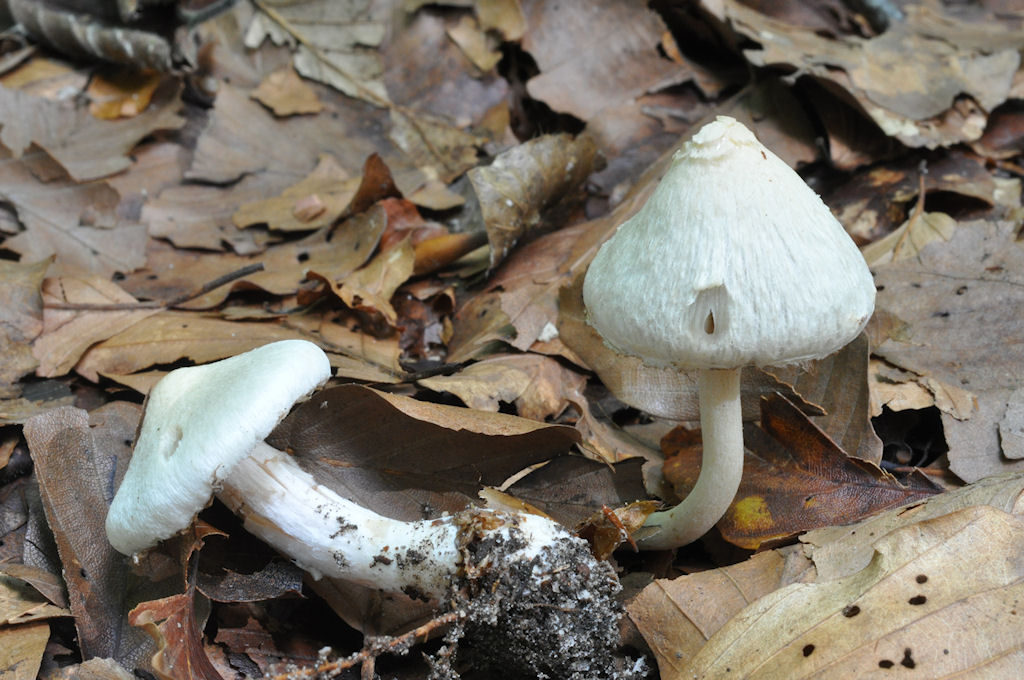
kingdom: Fungi
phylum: Basidiomycota
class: Agaricomycetes
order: Agaricales
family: Inocybaceae
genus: Inocybe
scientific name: Inocybe sindonia
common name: bleg trævlhat
